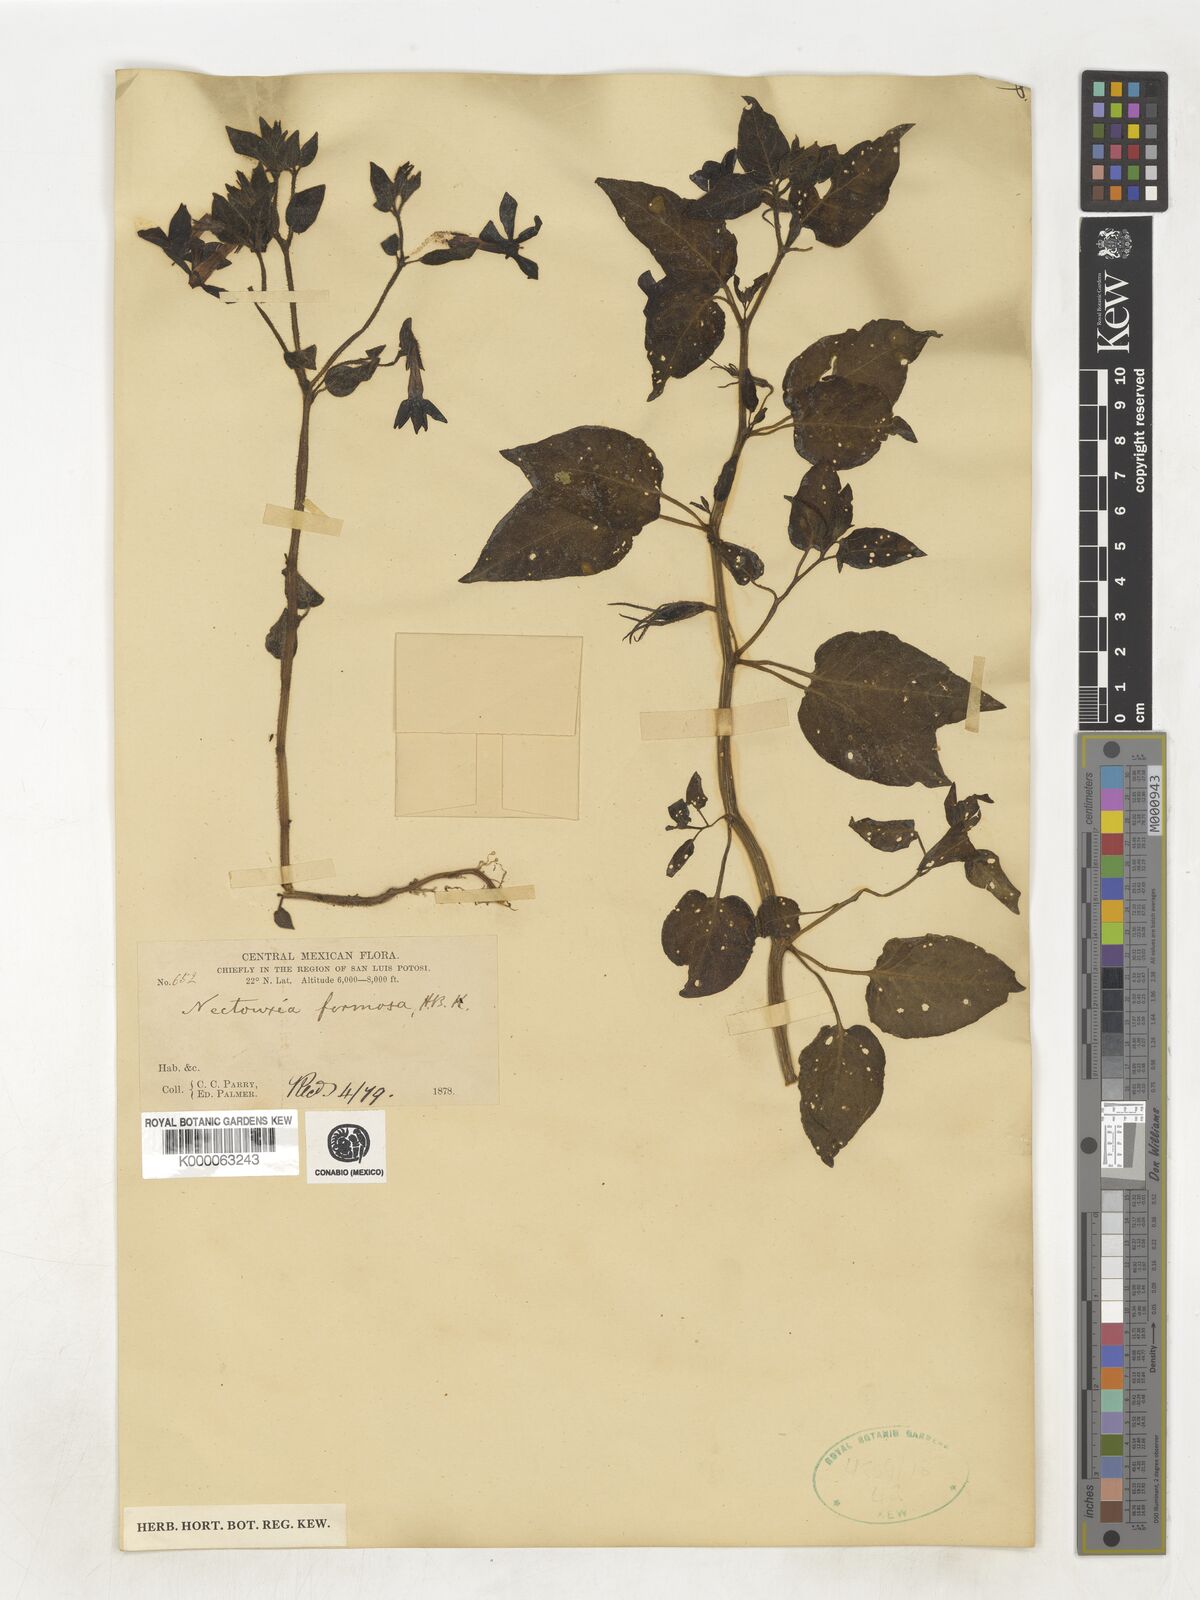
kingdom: Plantae
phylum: Tracheophyta
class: Magnoliopsida
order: Solanales
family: Solanaceae
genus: Nectouxia
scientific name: Nectouxia formosa
